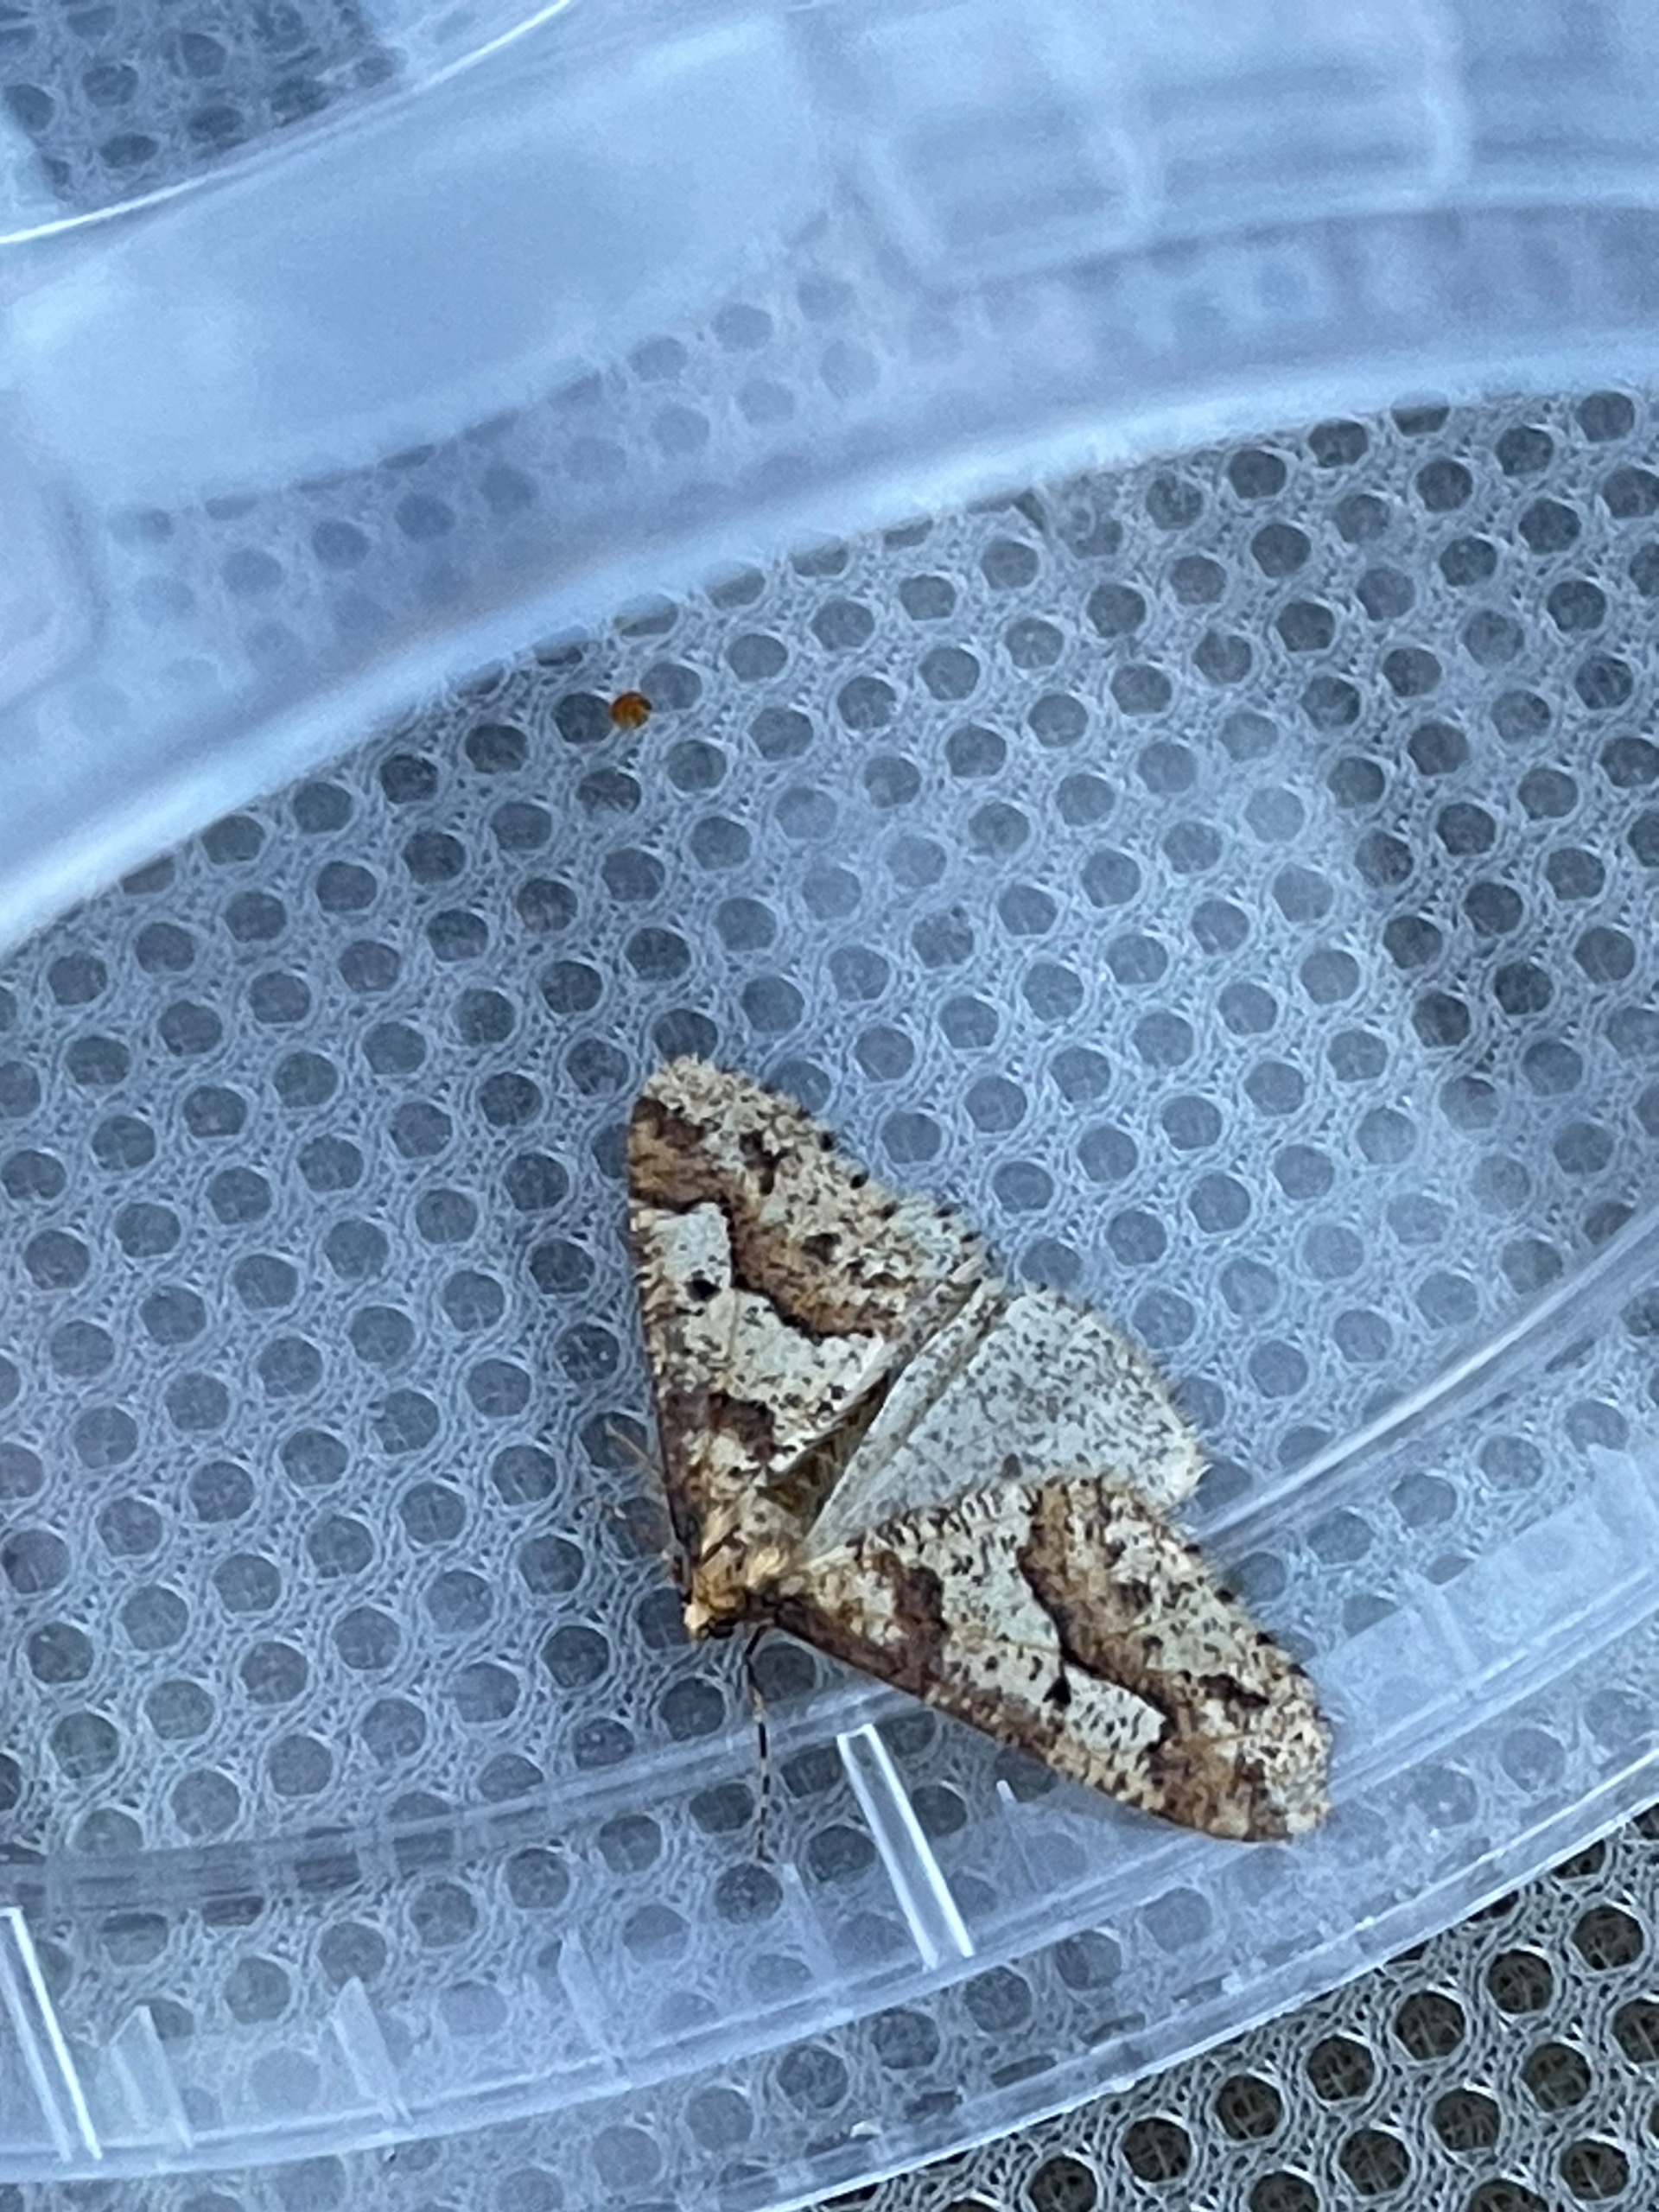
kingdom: Animalia
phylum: Arthropoda
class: Insecta
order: Lepidoptera
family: Geometridae
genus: Erannis
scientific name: Erannis defoliaria
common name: Stor frostmåler
